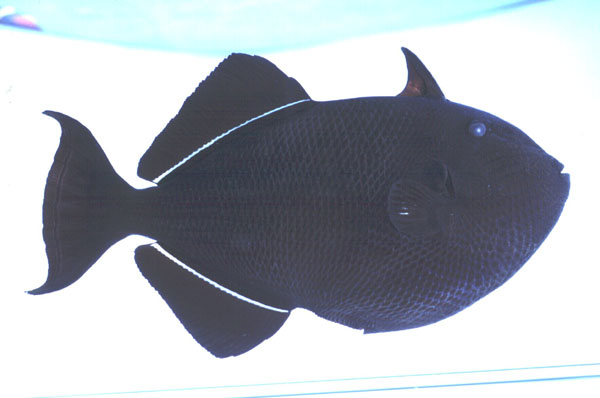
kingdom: Animalia
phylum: Chordata
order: Tetraodontiformes
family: Balistidae
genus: Melichthys
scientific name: Melichthys niger
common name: Black durgon
